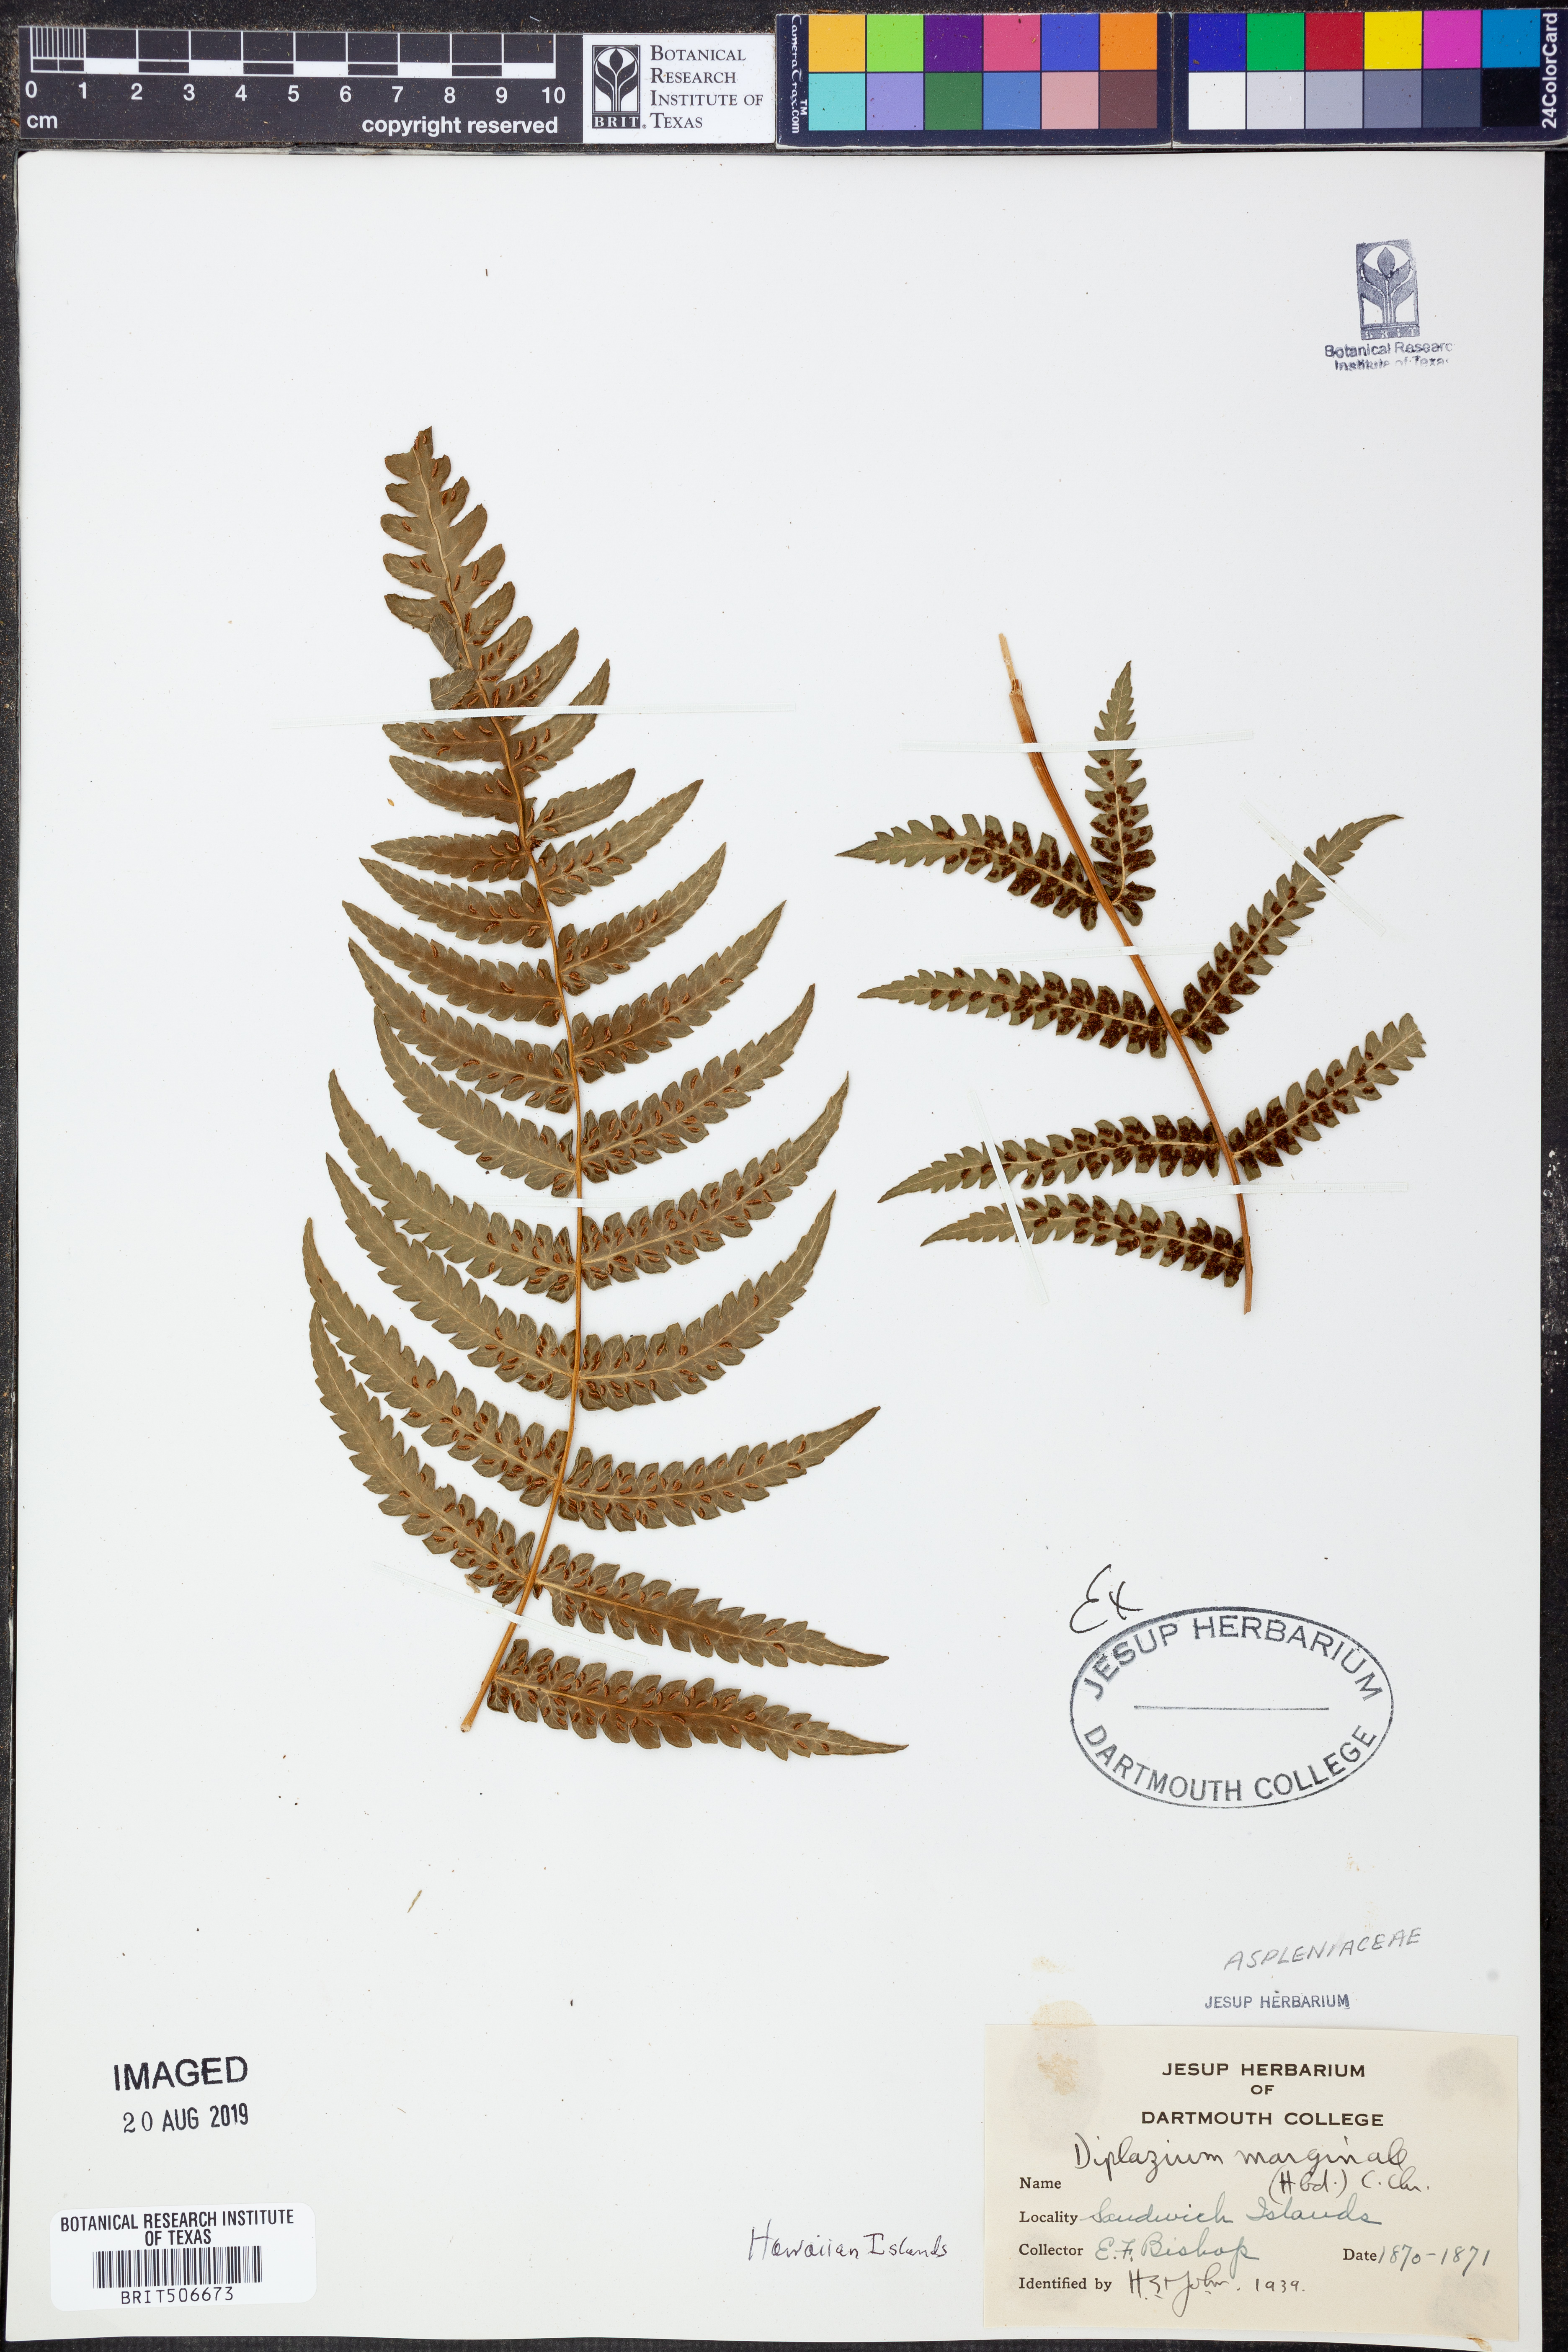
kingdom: Plantae
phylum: Tracheophyta
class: Polypodiopsida
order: Polypodiales
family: Athyriaceae
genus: Deparia
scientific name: Deparia marginalis
